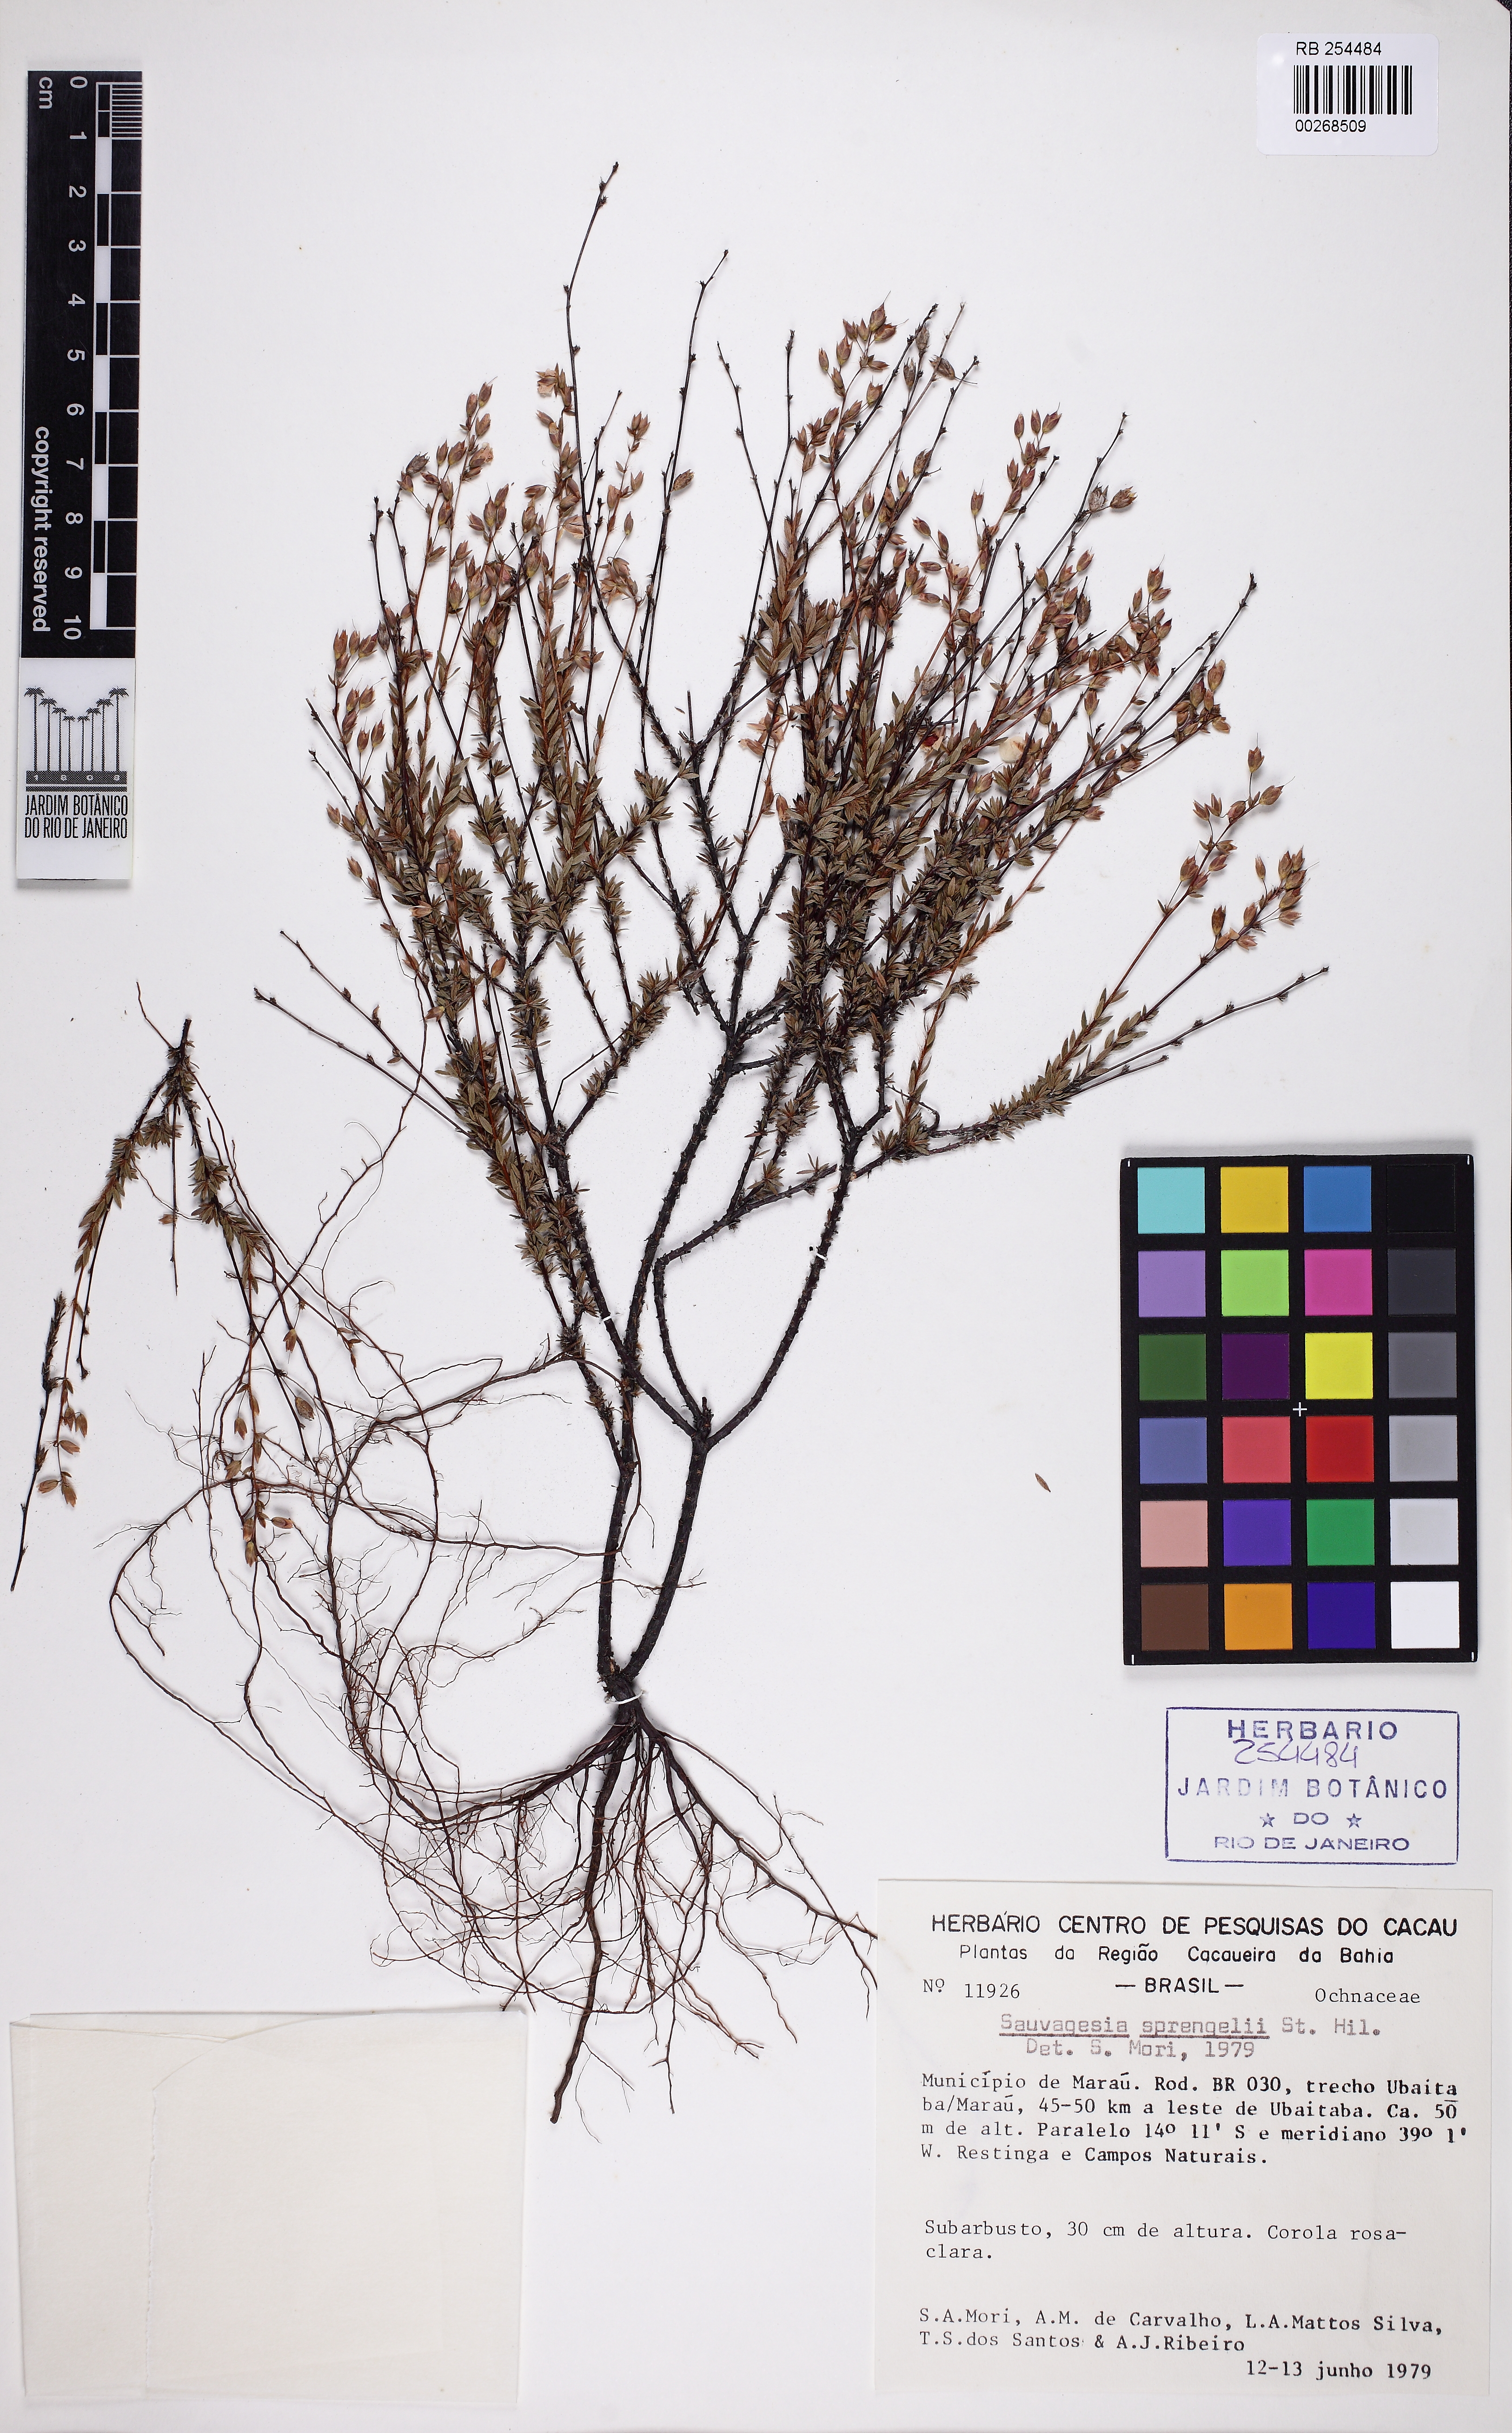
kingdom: Plantae
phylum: Tracheophyta
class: Magnoliopsida
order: Malpighiales
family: Ochnaceae
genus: Sauvagesia
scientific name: Sauvagesia sprengelii
